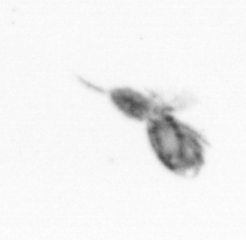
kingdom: Animalia
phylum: Arthropoda
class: Copepoda
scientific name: Copepoda
